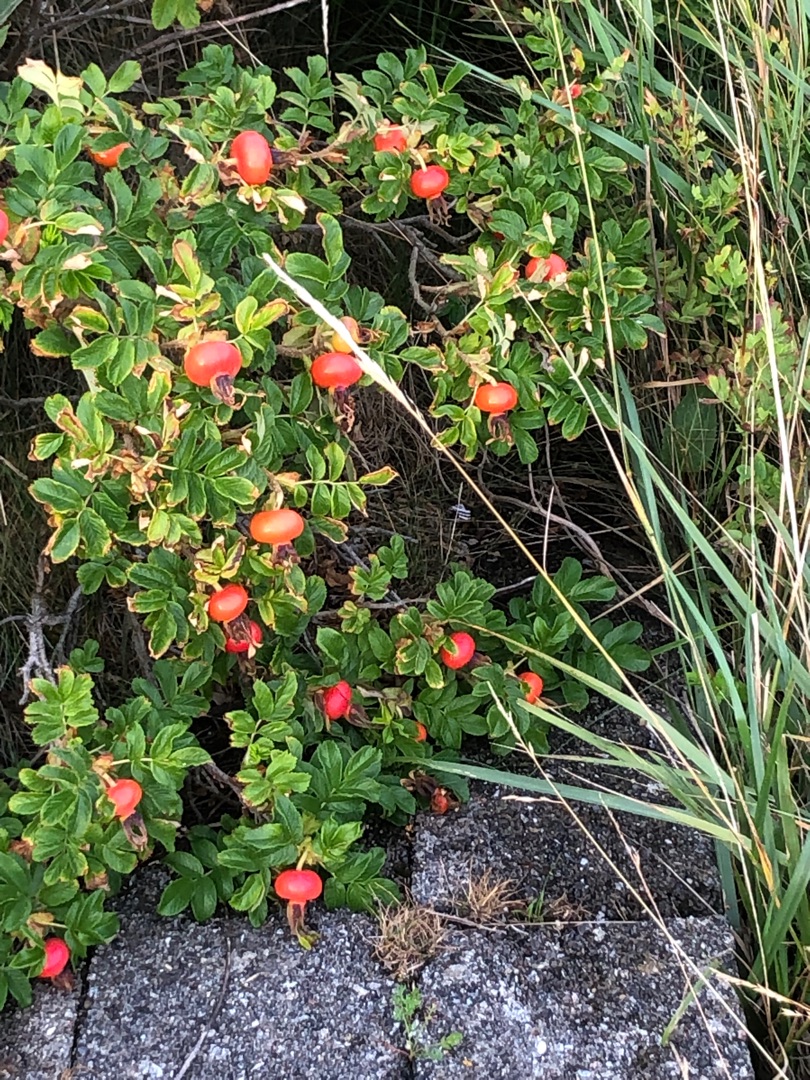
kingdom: Plantae
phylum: Tracheophyta
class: Magnoliopsida
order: Rosales
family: Rosaceae
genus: Rosa
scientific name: Rosa rugosa
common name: Rynket rose
